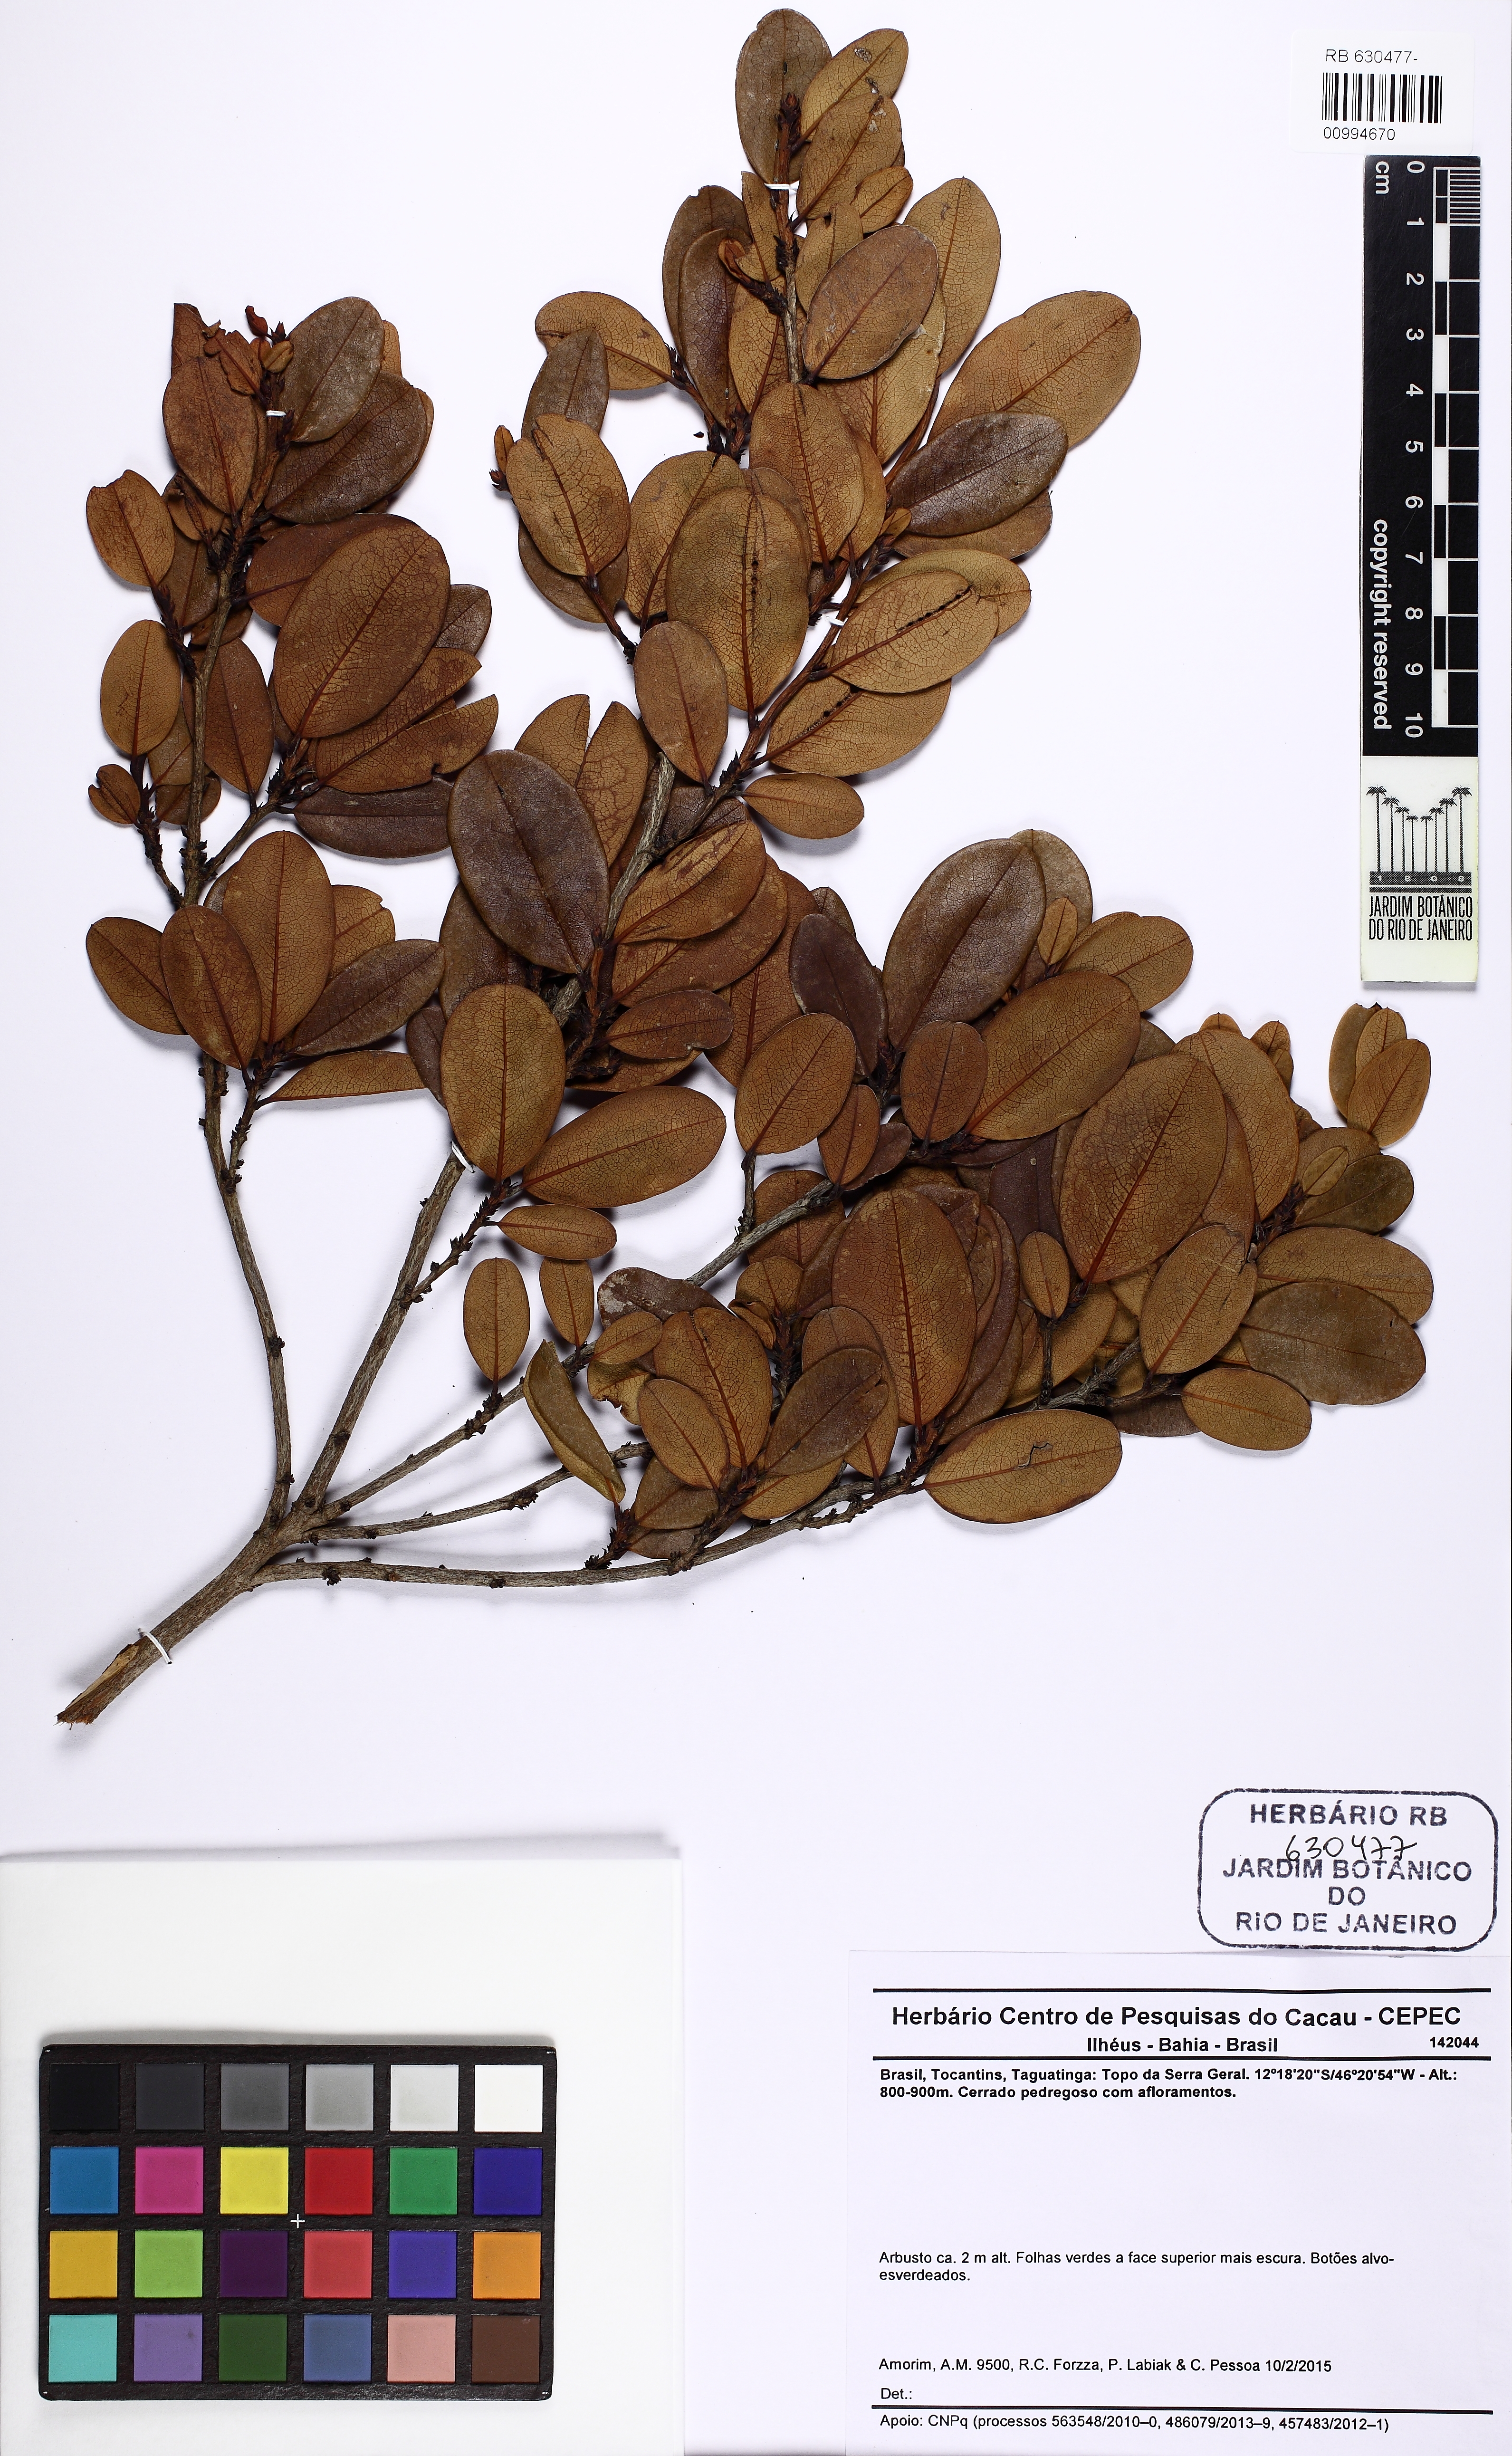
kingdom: Plantae
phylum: Tracheophyta
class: Magnoliopsida
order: Malpighiales
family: Erythroxylaceae
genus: Erythroxylum
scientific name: Erythroxylum
